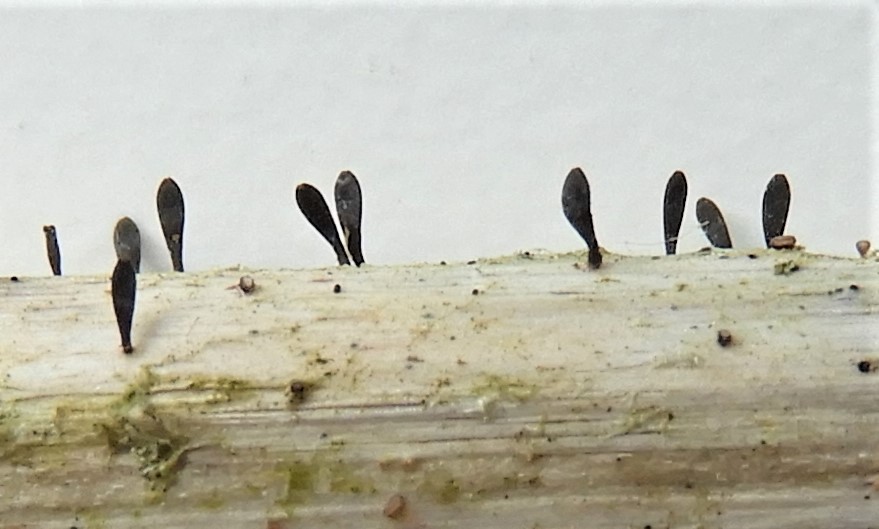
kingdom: Fungi
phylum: Ascomycota
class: Dothideomycetes
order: Acrospermales
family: Acrospermaceae
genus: Acrospermum
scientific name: Acrospermum compressum
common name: nælde-stængeltunge
